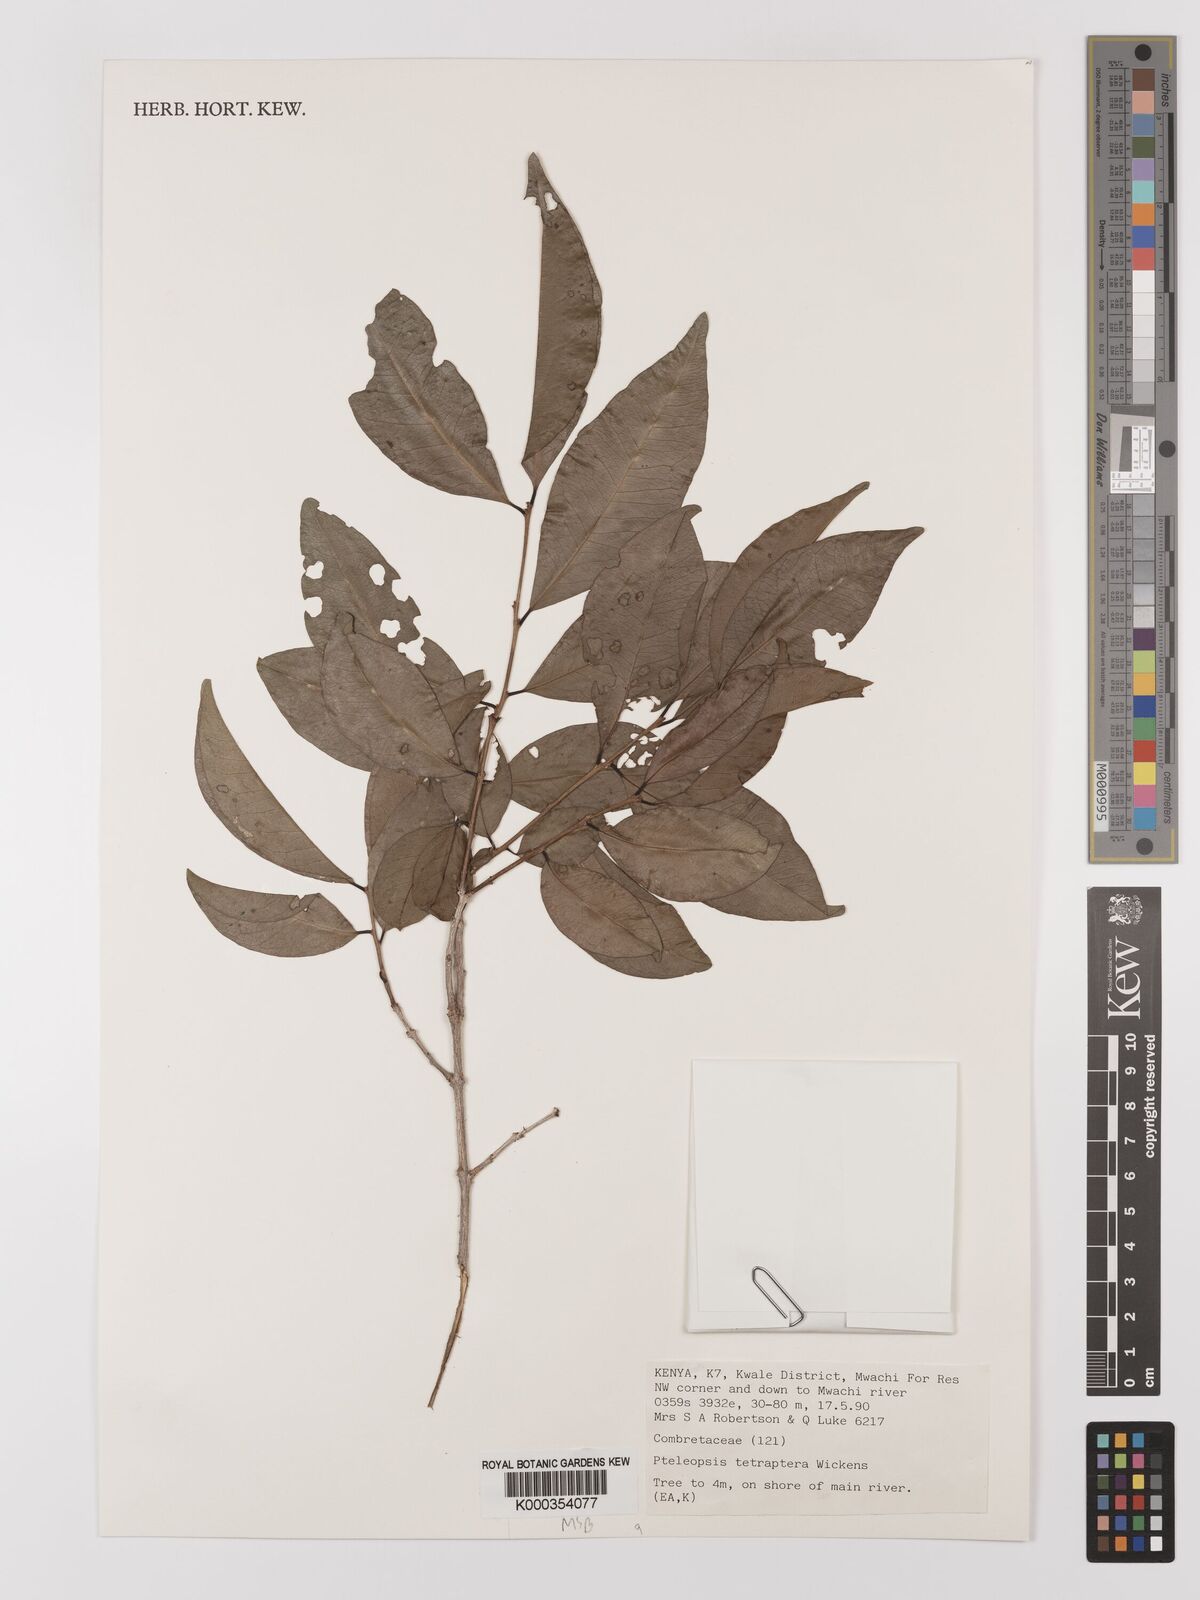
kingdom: Plantae
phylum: Tracheophyta
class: Magnoliopsida
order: Myrtales
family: Combretaceae
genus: Terminalia
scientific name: Terminalia tetraptera
